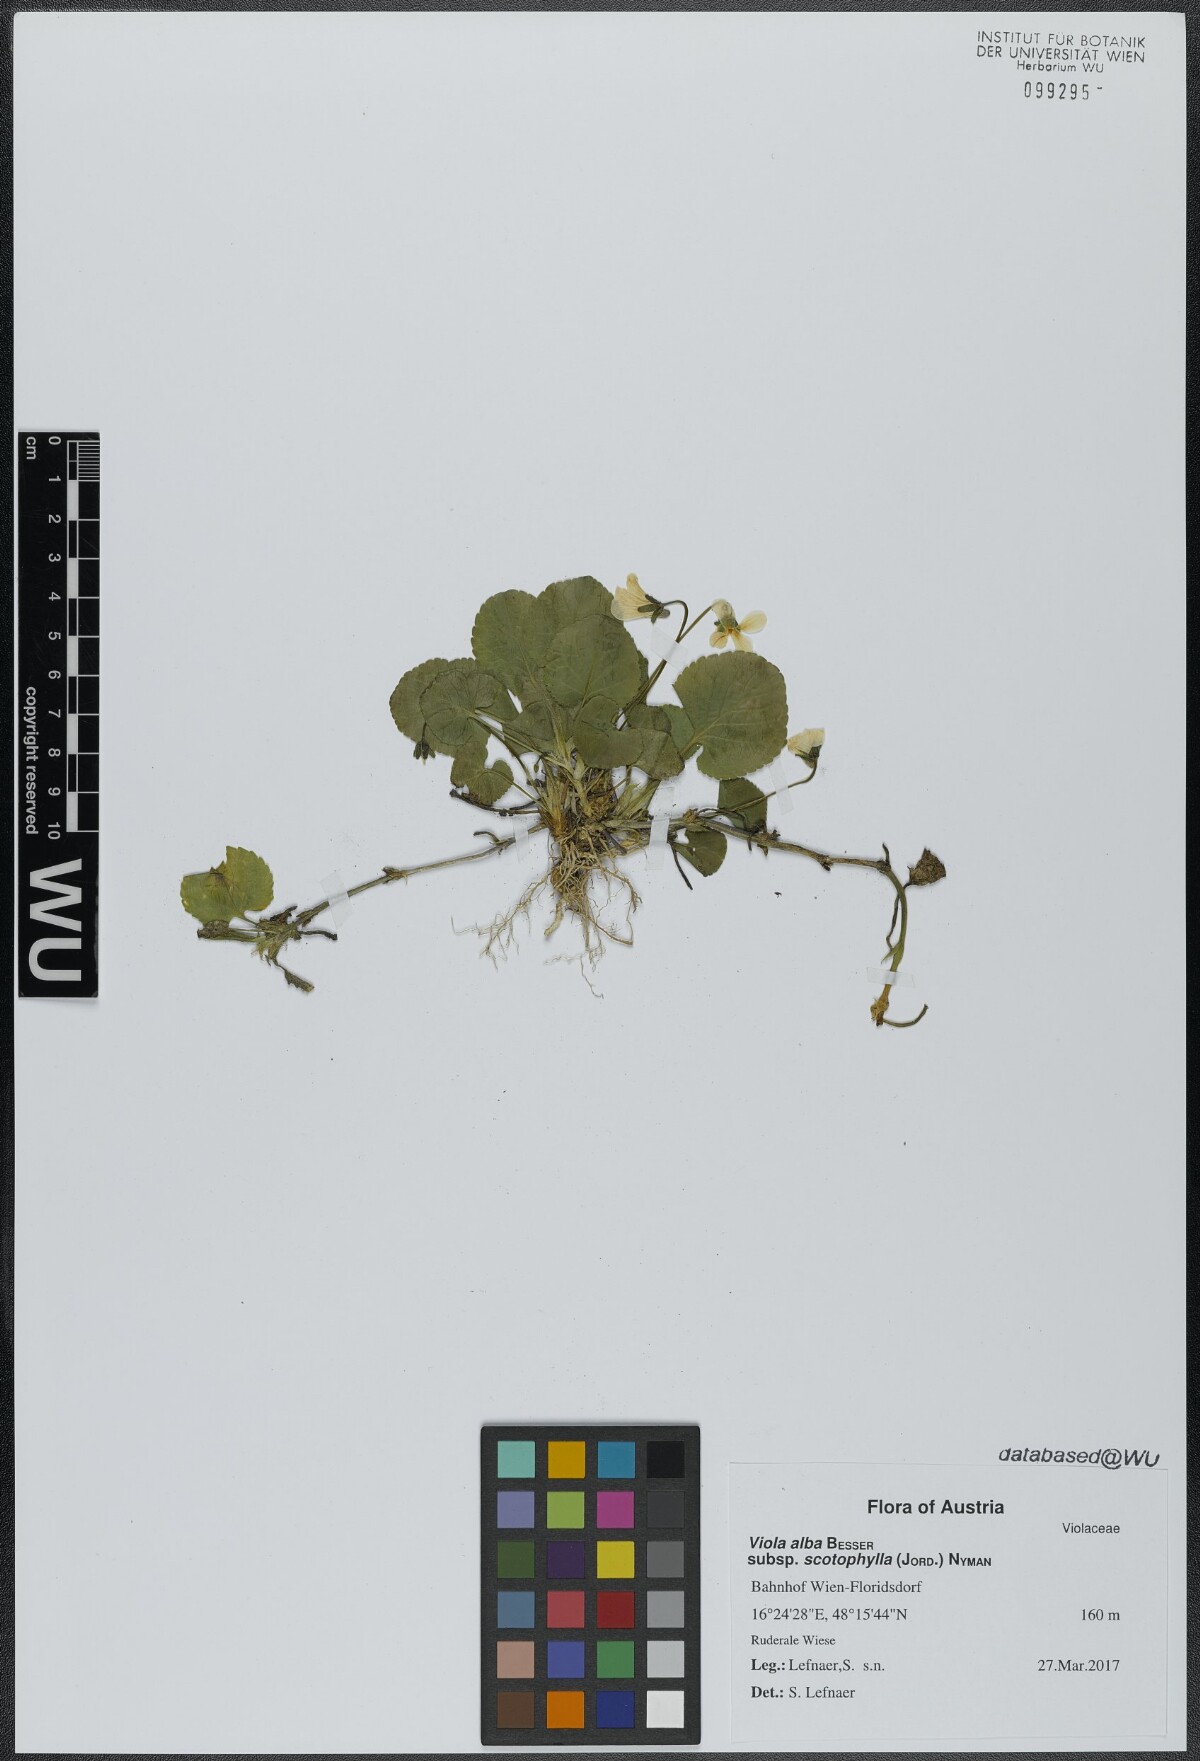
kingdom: Plantae
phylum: Tracheophyta
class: Magnoliopsida
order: Malpighiales
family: Violaceae
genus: Viola
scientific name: Viola alba
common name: White violet
